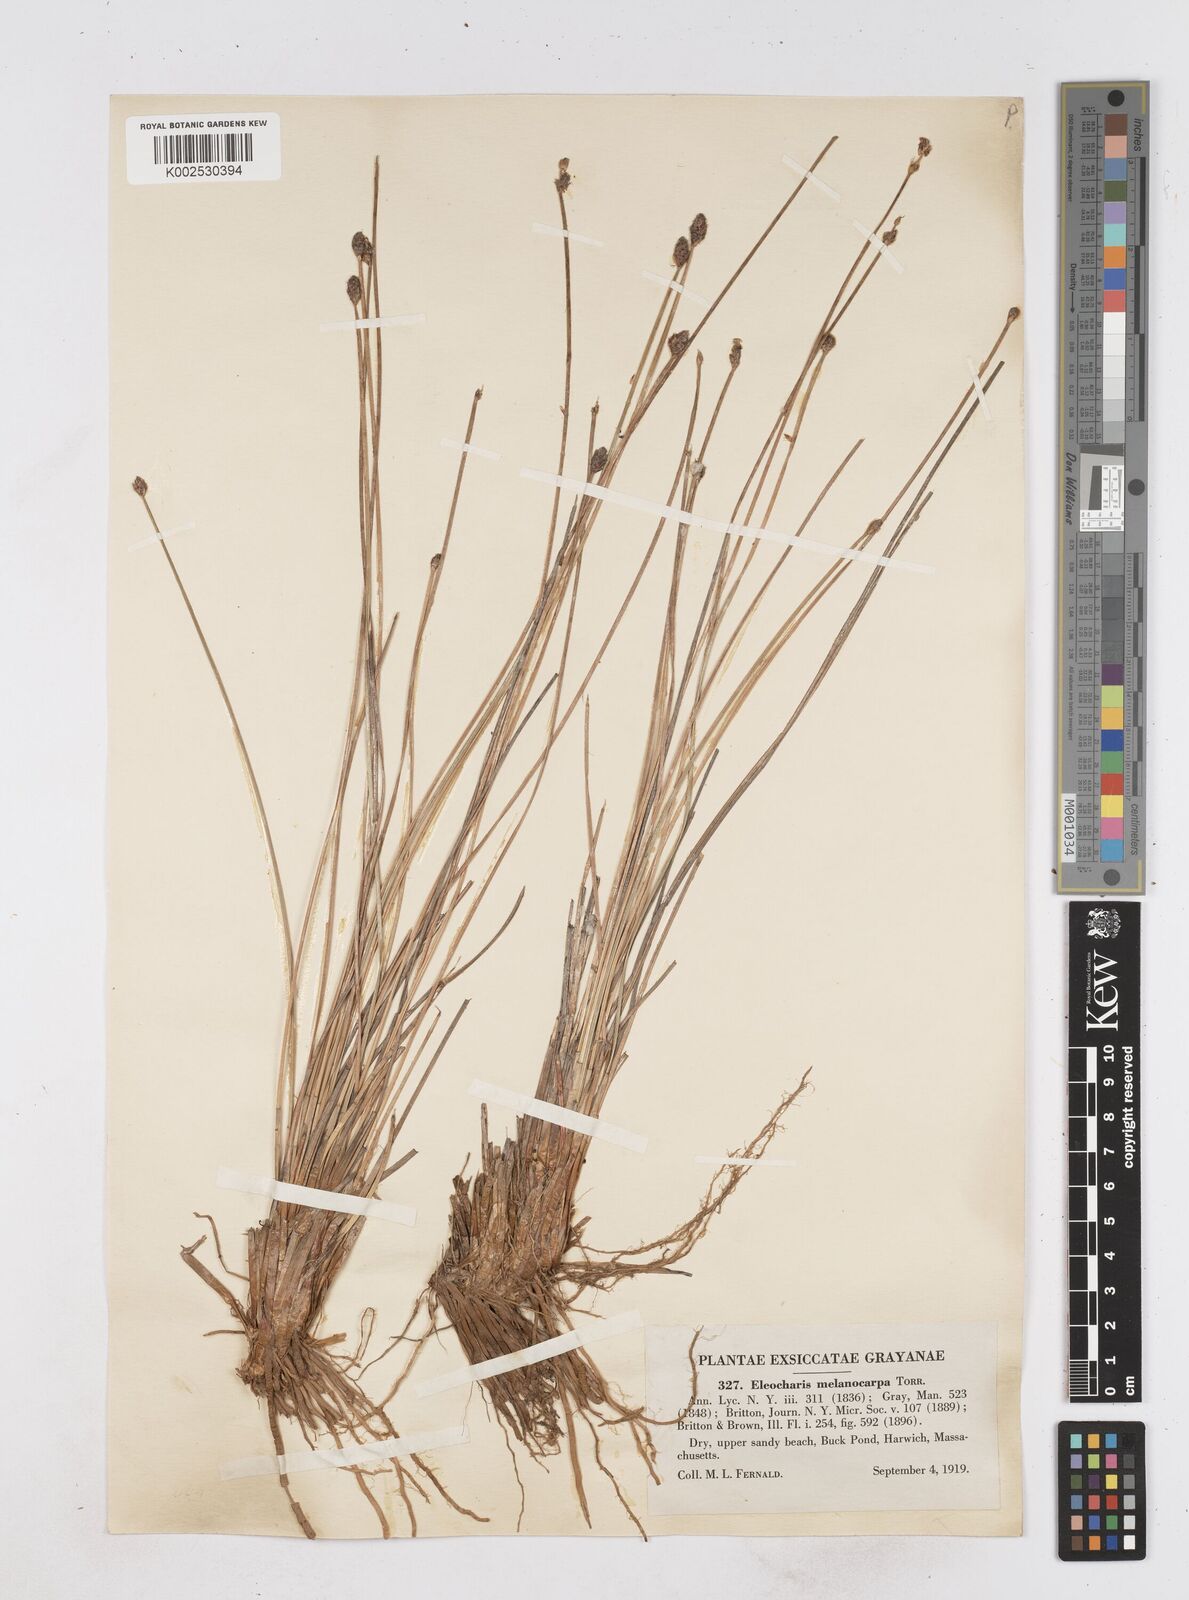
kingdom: Plantae
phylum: Tracheophyta
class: Liliopsida
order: Poales
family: Cyperaceae
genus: Eleocharis
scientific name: Eleocharis melanocarpa
